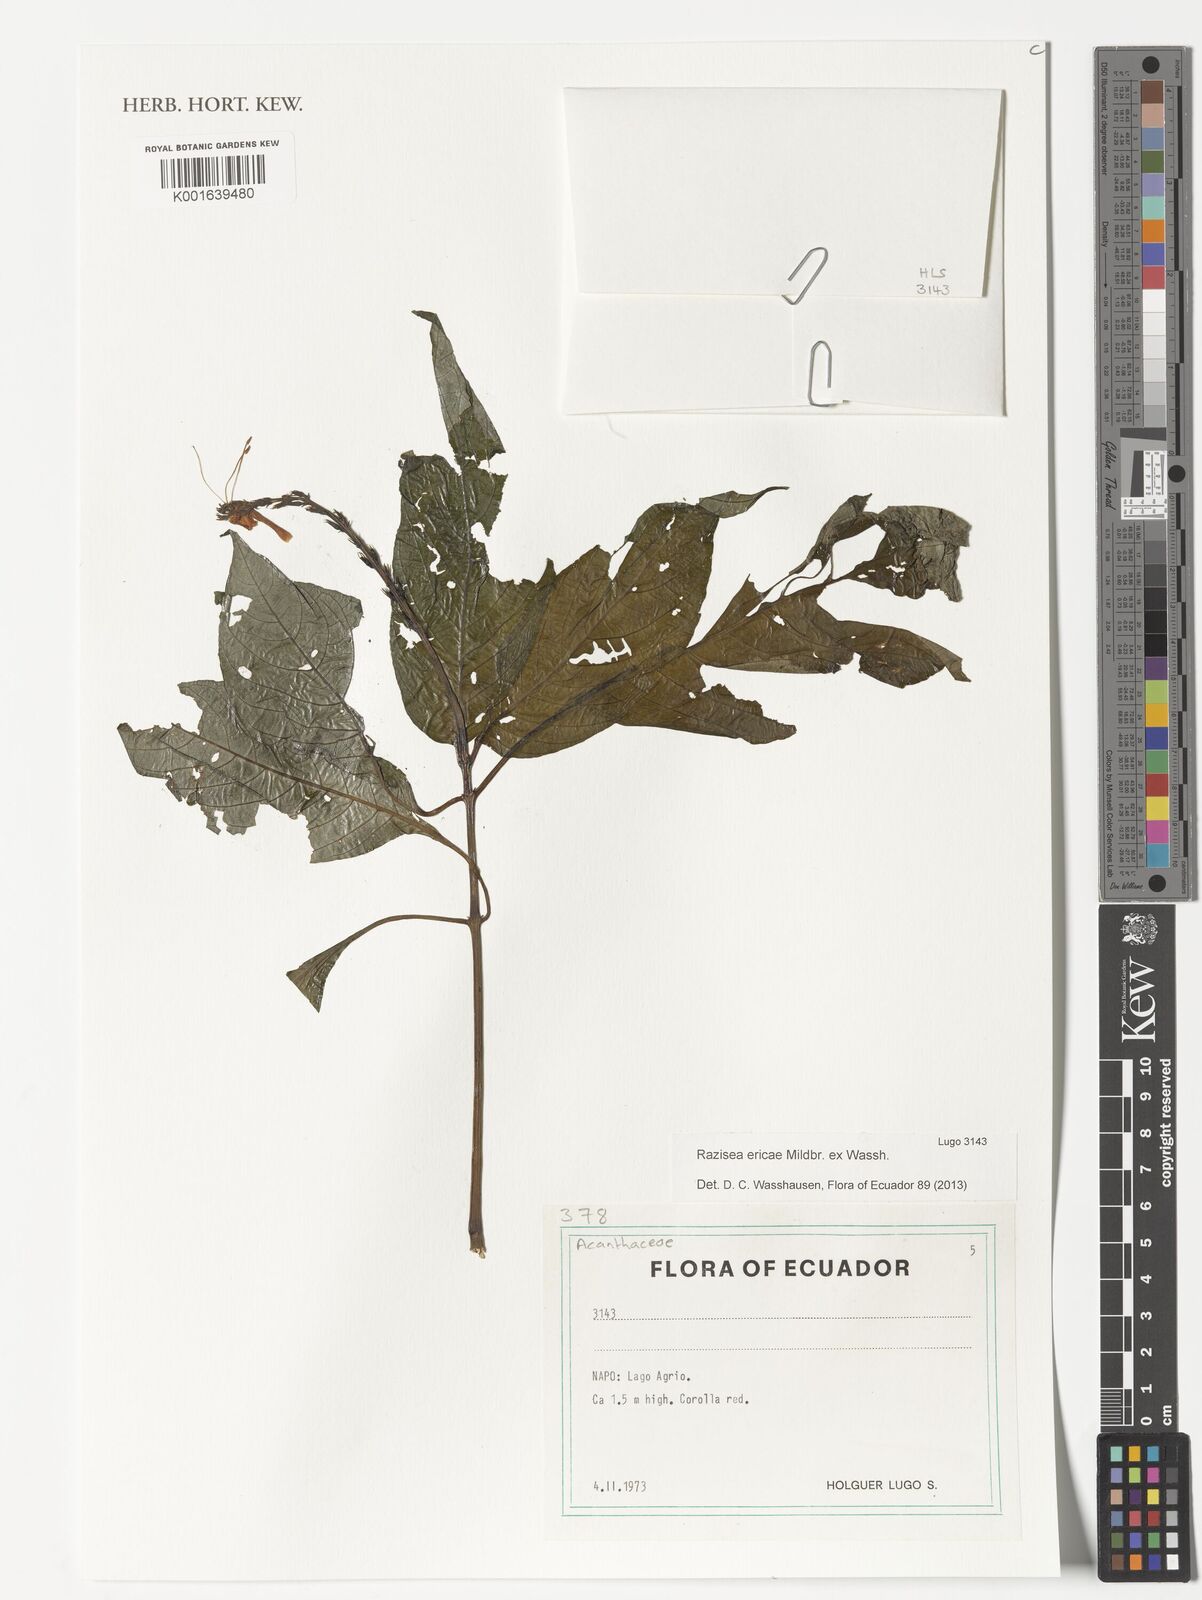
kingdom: Plantae
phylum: Tracheophyta
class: Magnoliopsida
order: Lamiales
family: Acanthaceae
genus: Stenostephanus
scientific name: Stenostephanus ericae
